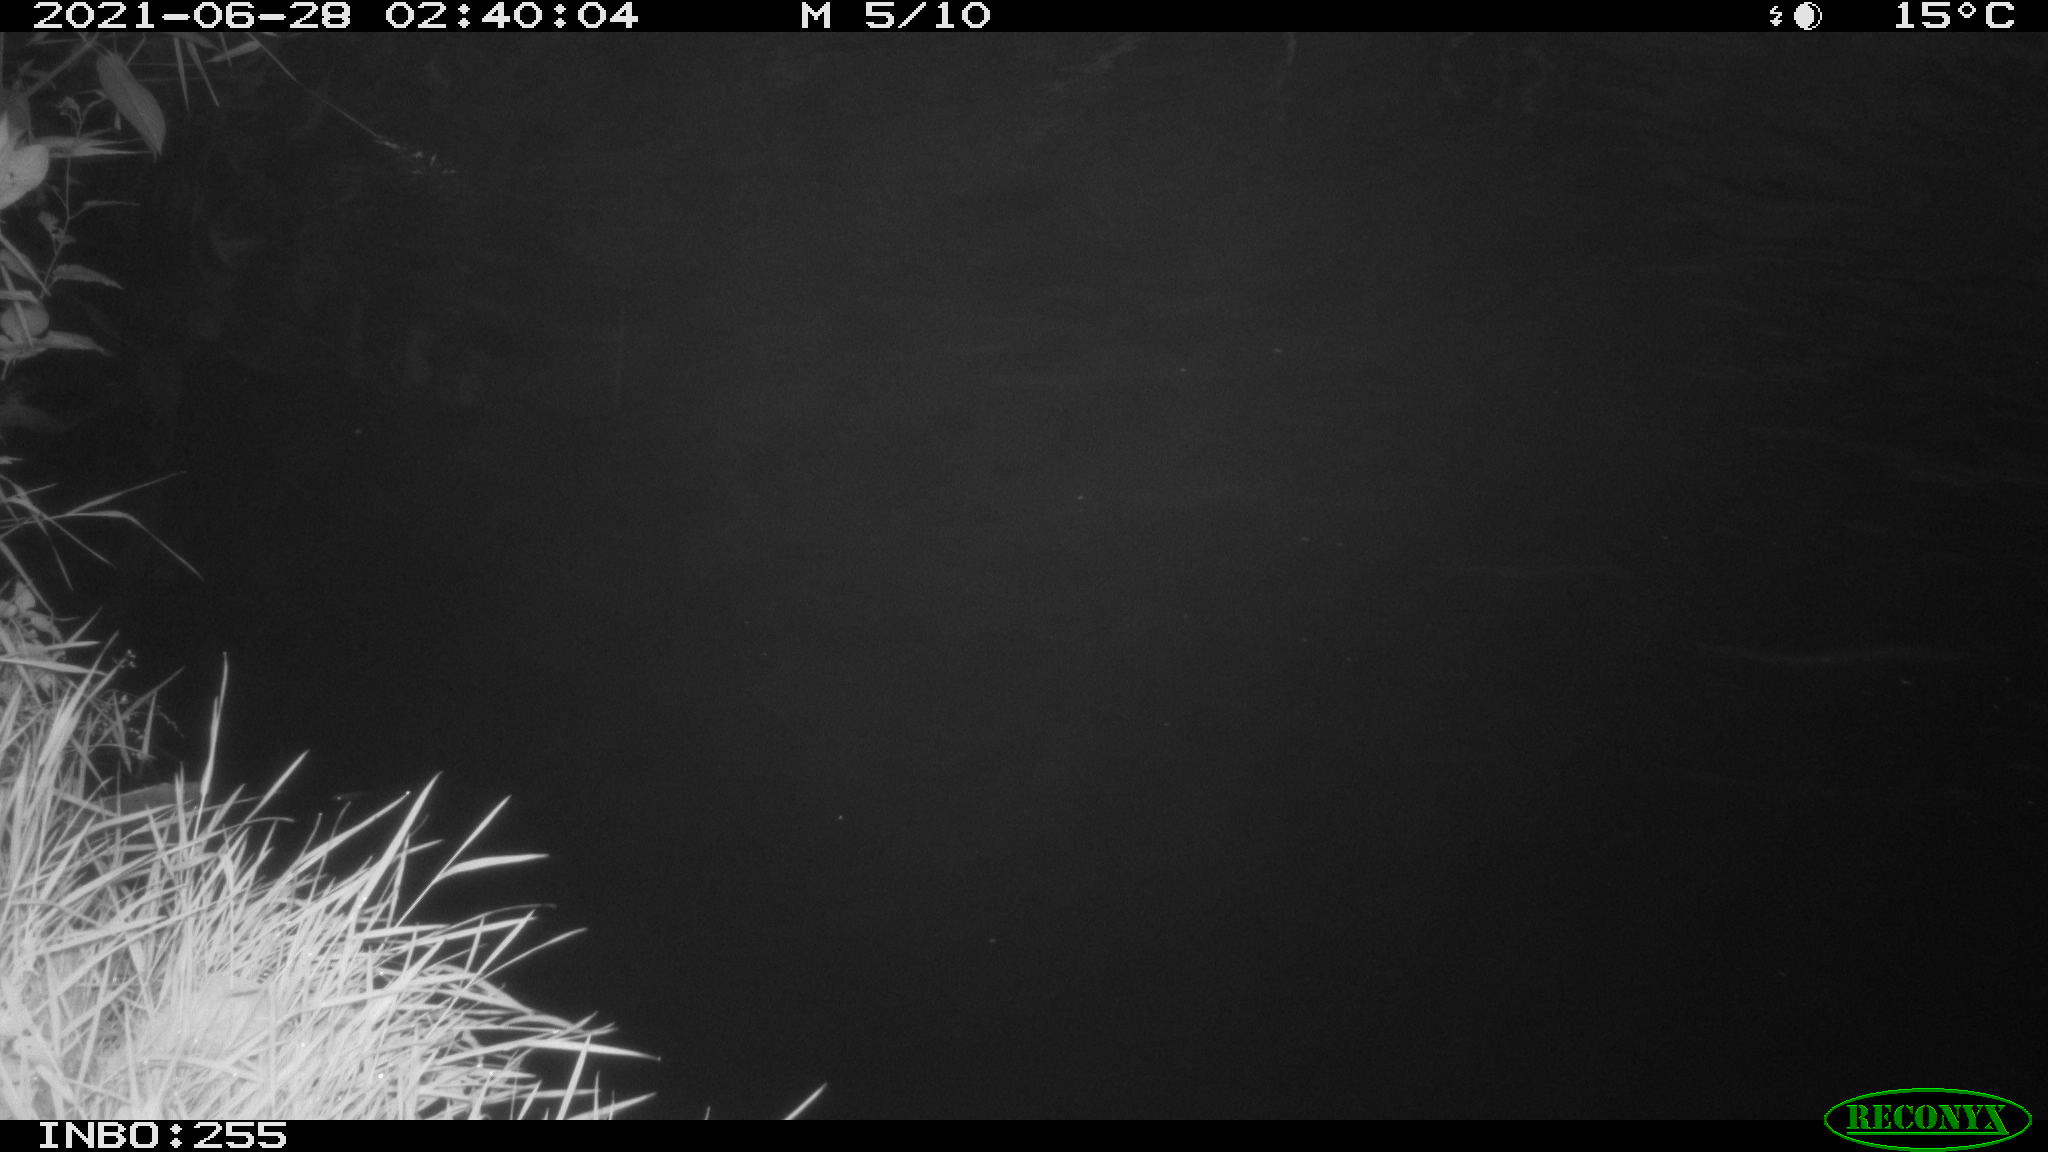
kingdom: Animalia
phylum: Chordata
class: Aves
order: Anseriformes
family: Anatidae
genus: Anas
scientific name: Anas
